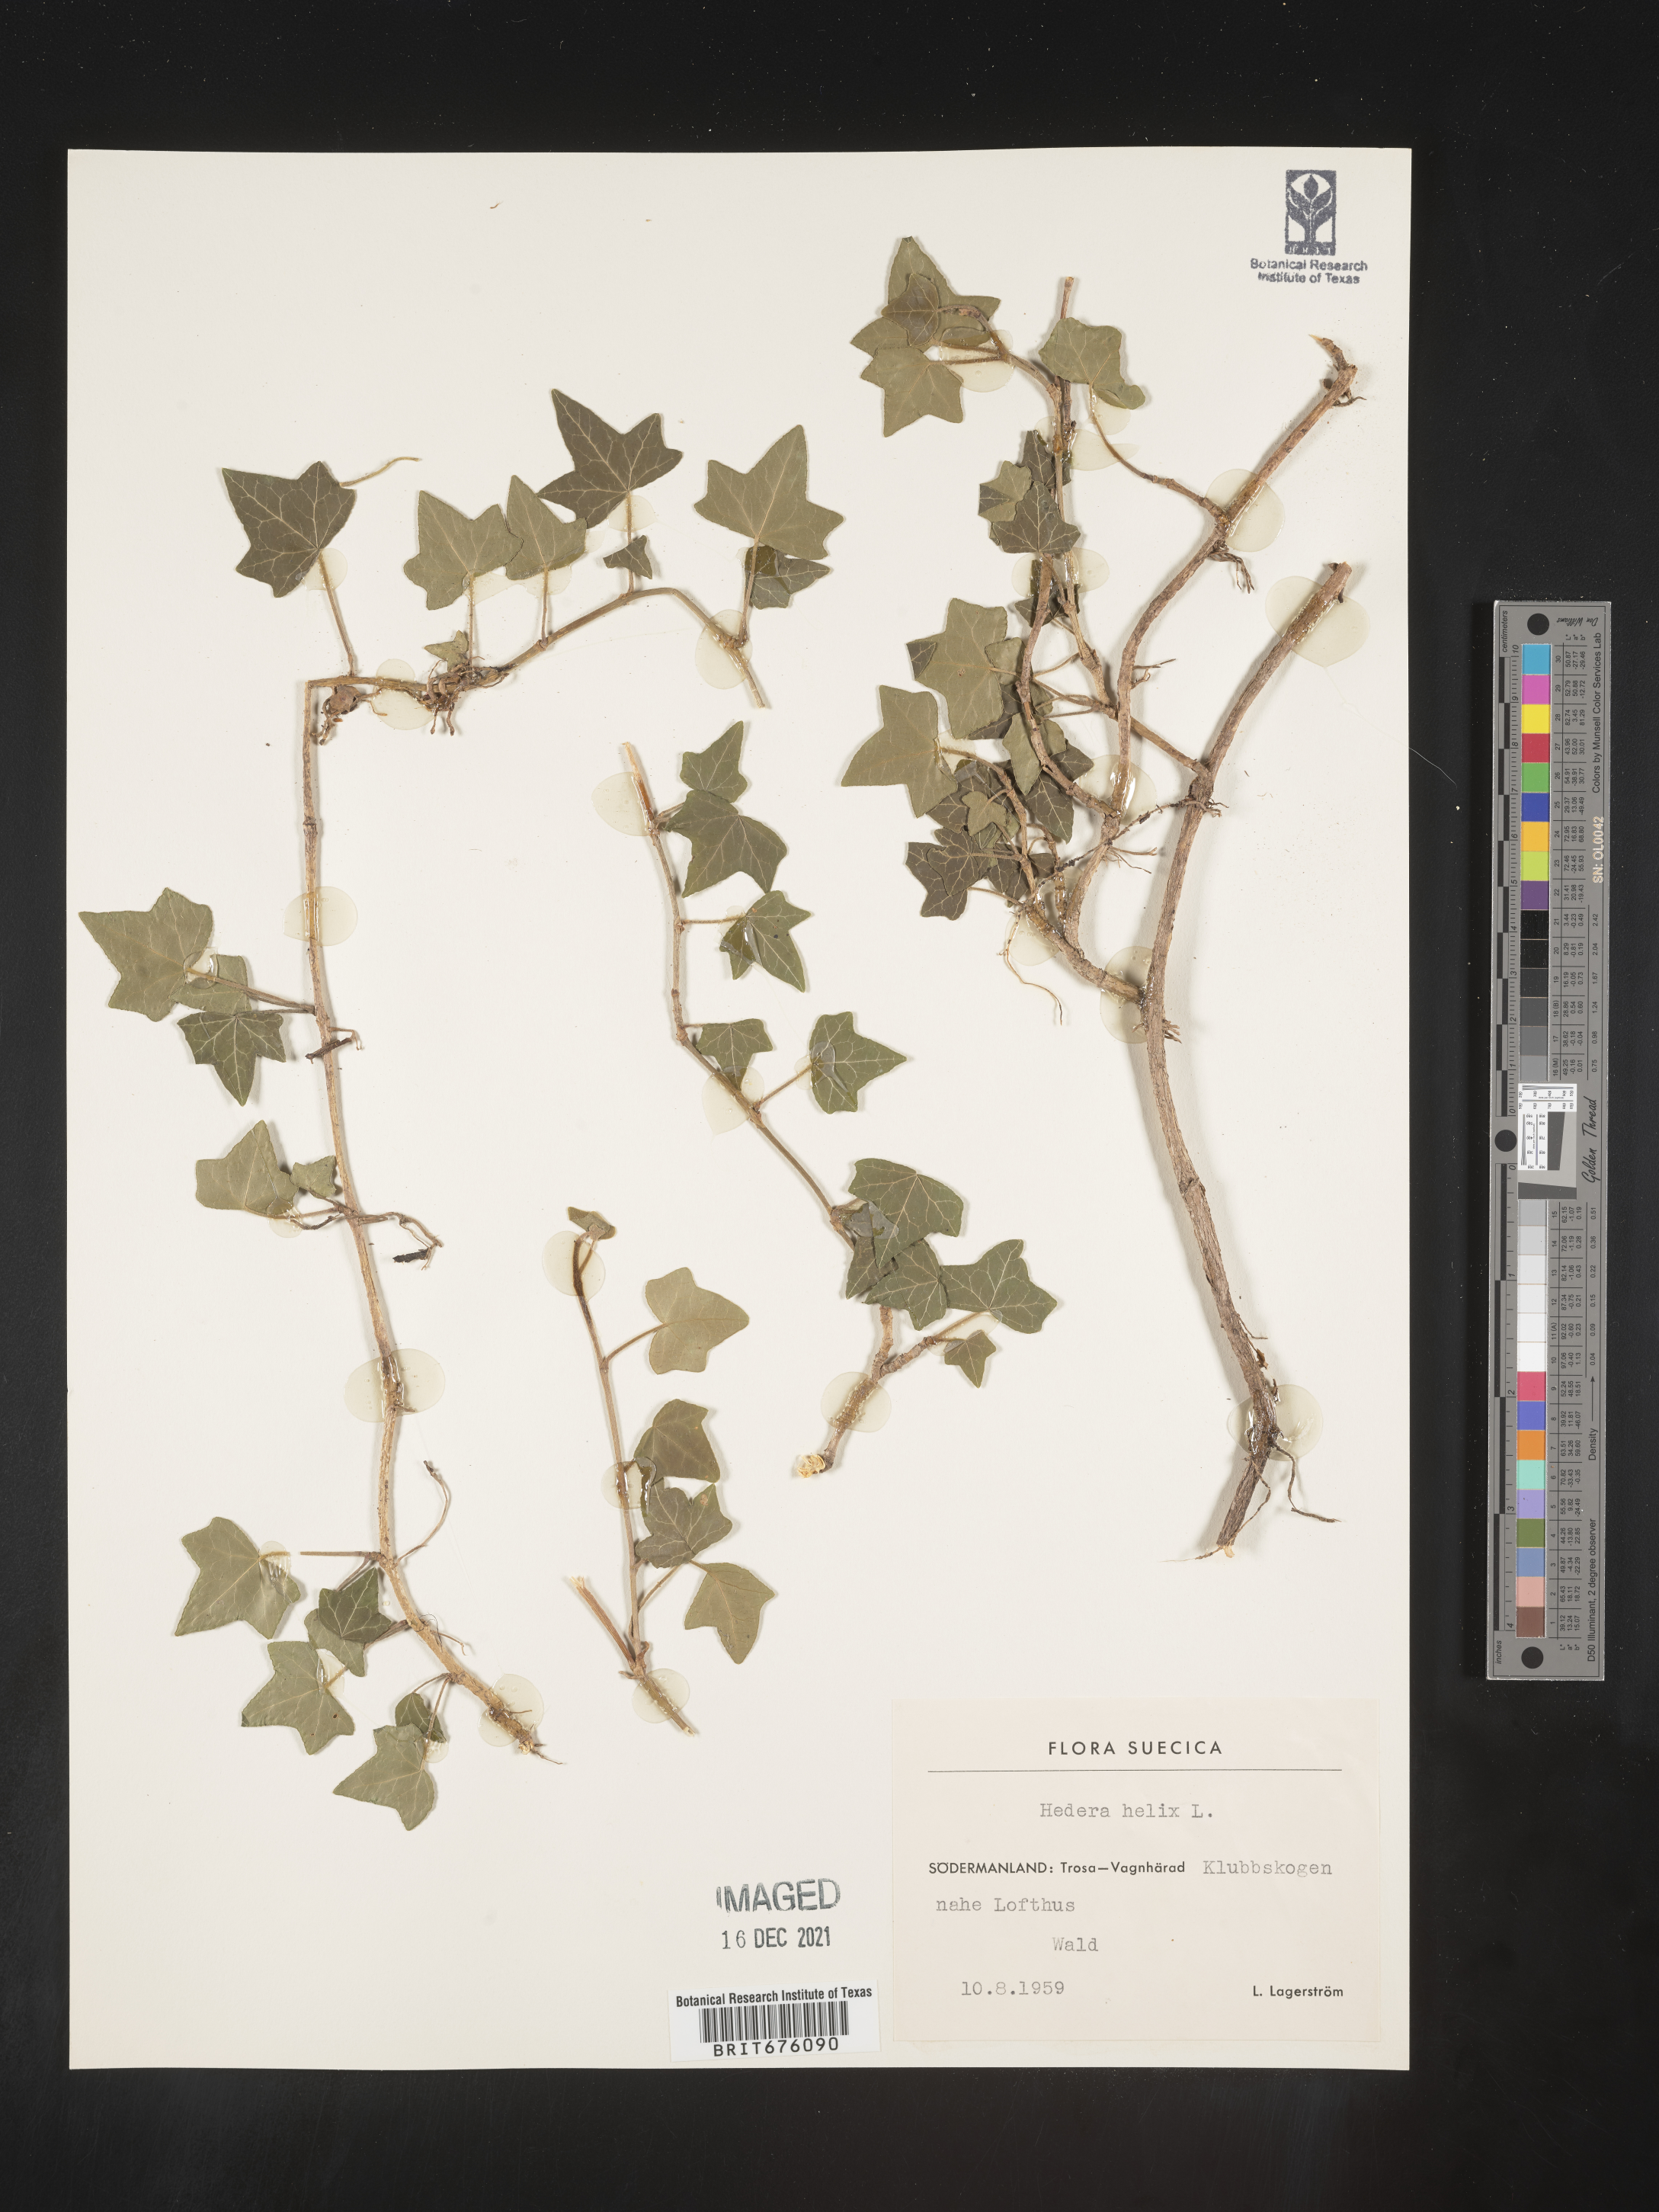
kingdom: Plantae
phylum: Tracheophyta
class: Magnoliopsida
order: Apiales
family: Araliaceae
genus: Hedera
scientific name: Hedera
